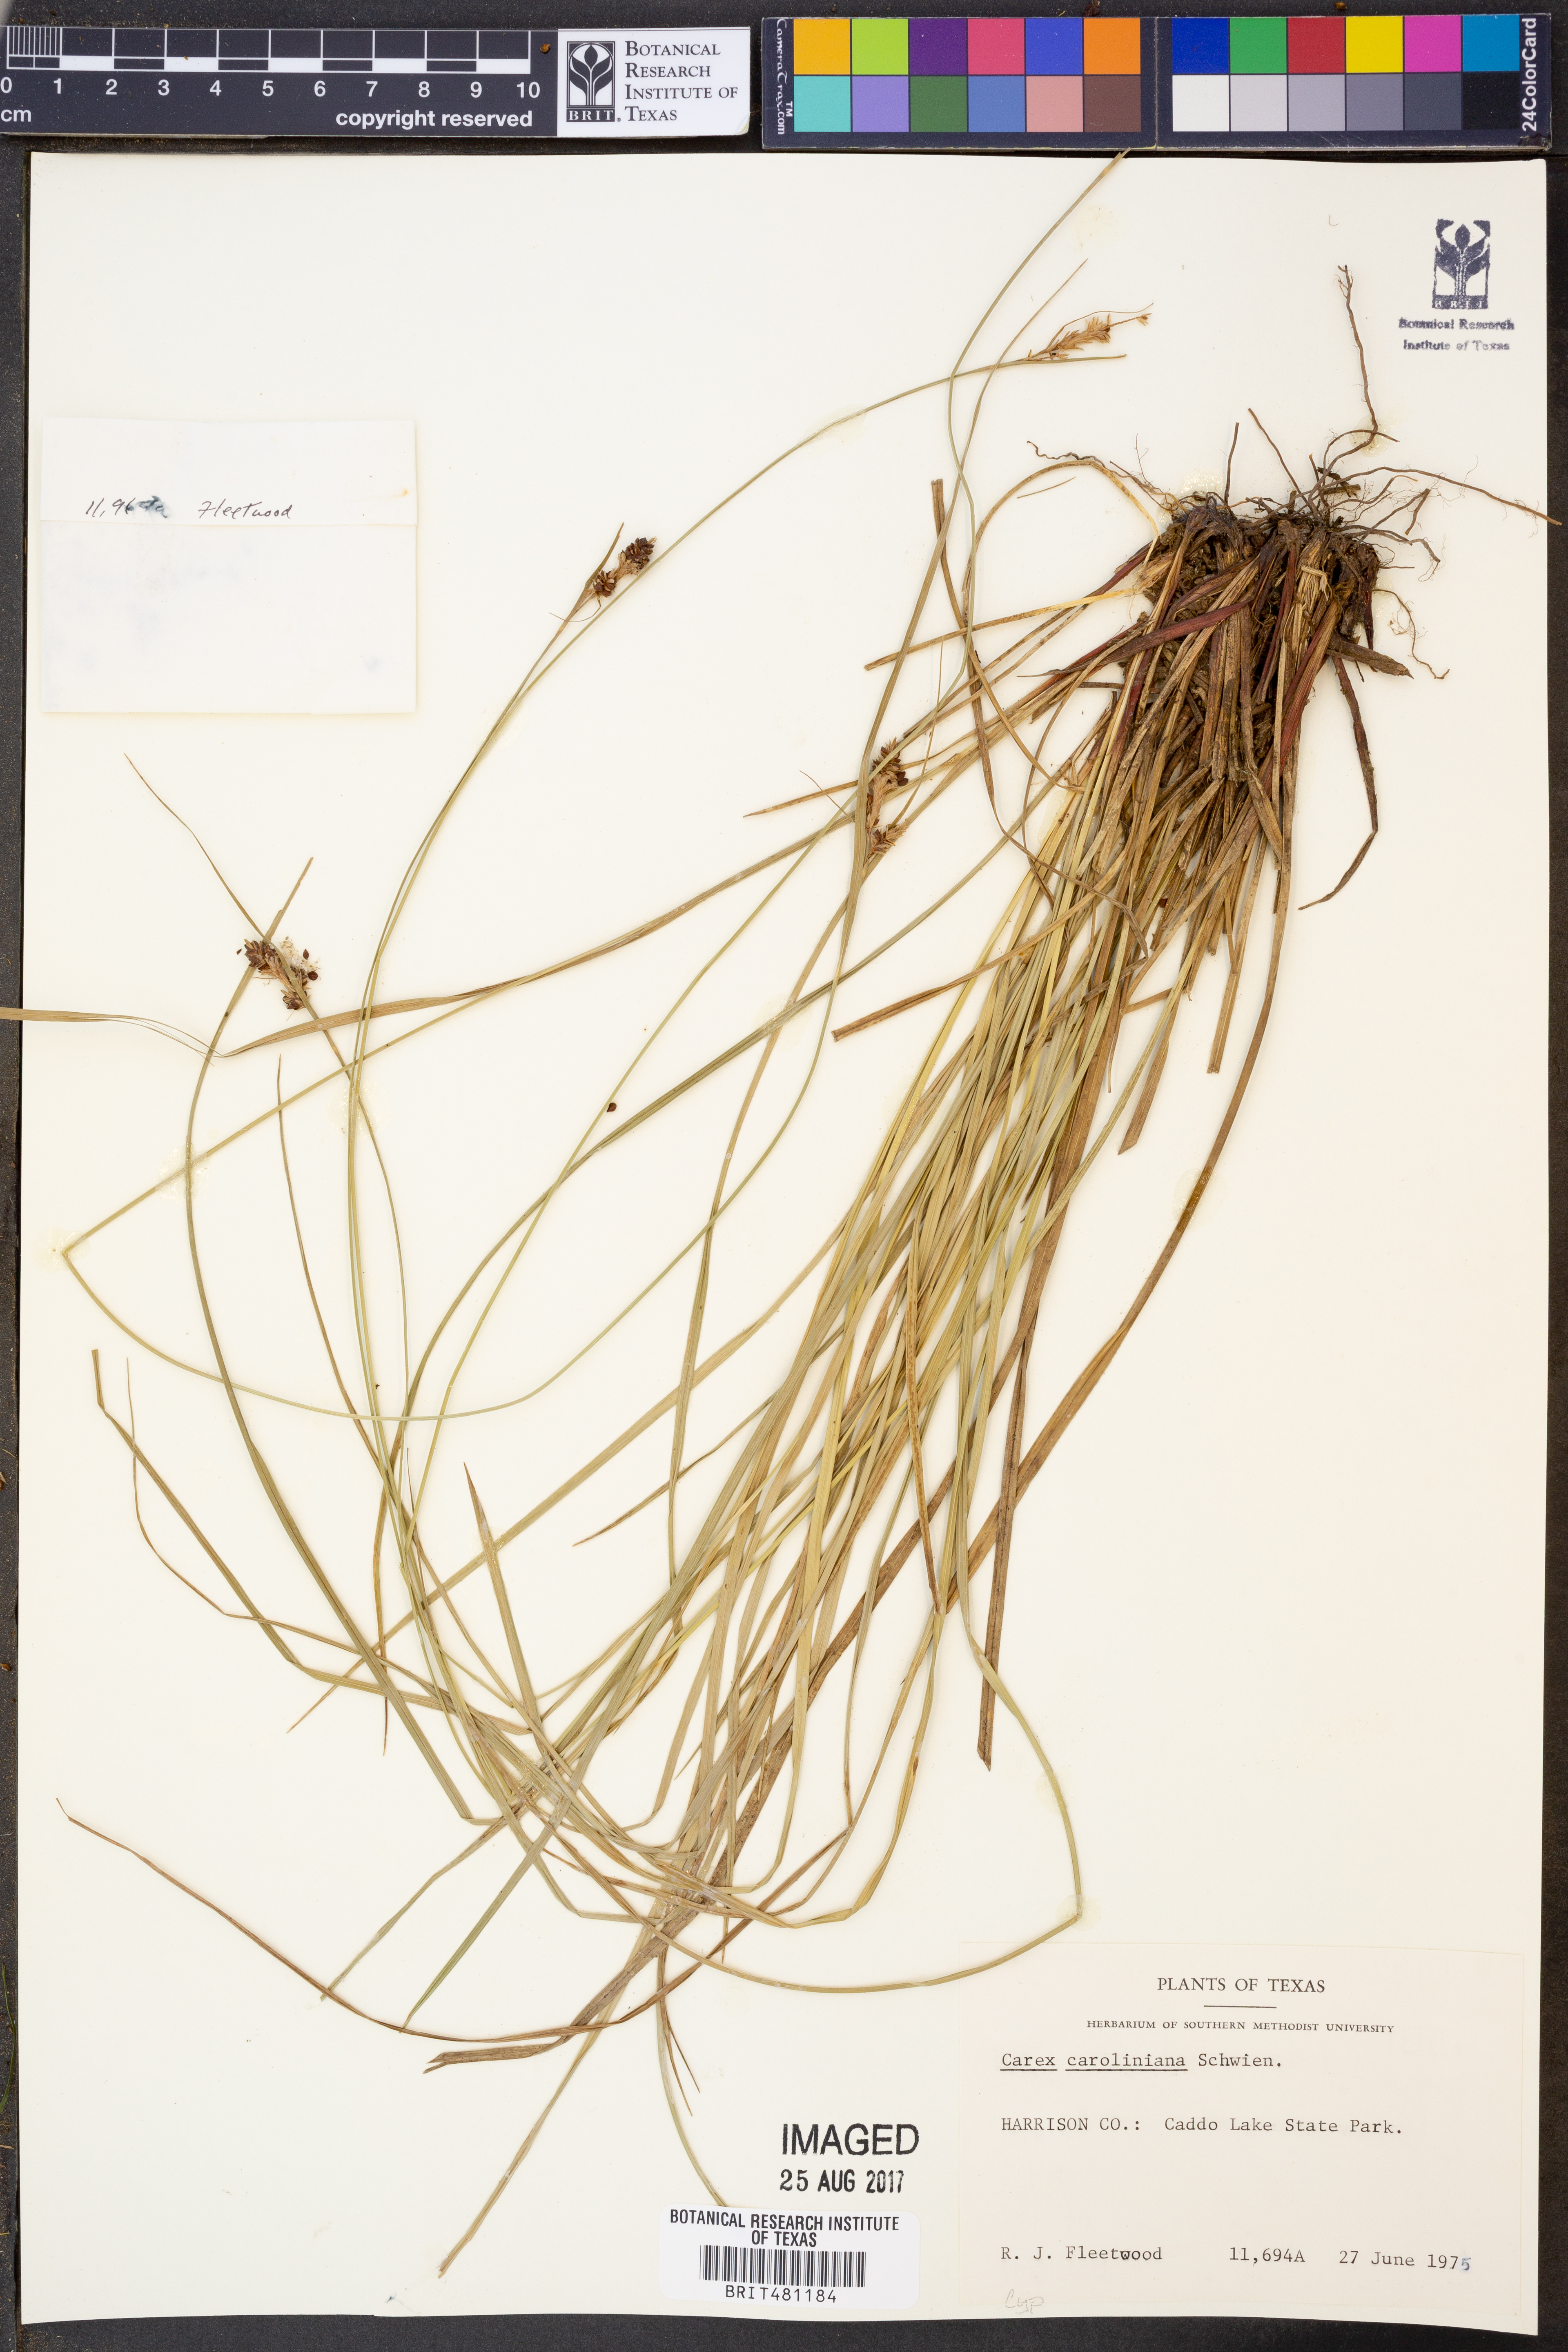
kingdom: Plantae
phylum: Tracheophyta
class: Liliopsida
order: Poales
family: Cyperaceae
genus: Carex
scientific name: Carex caroliniana
